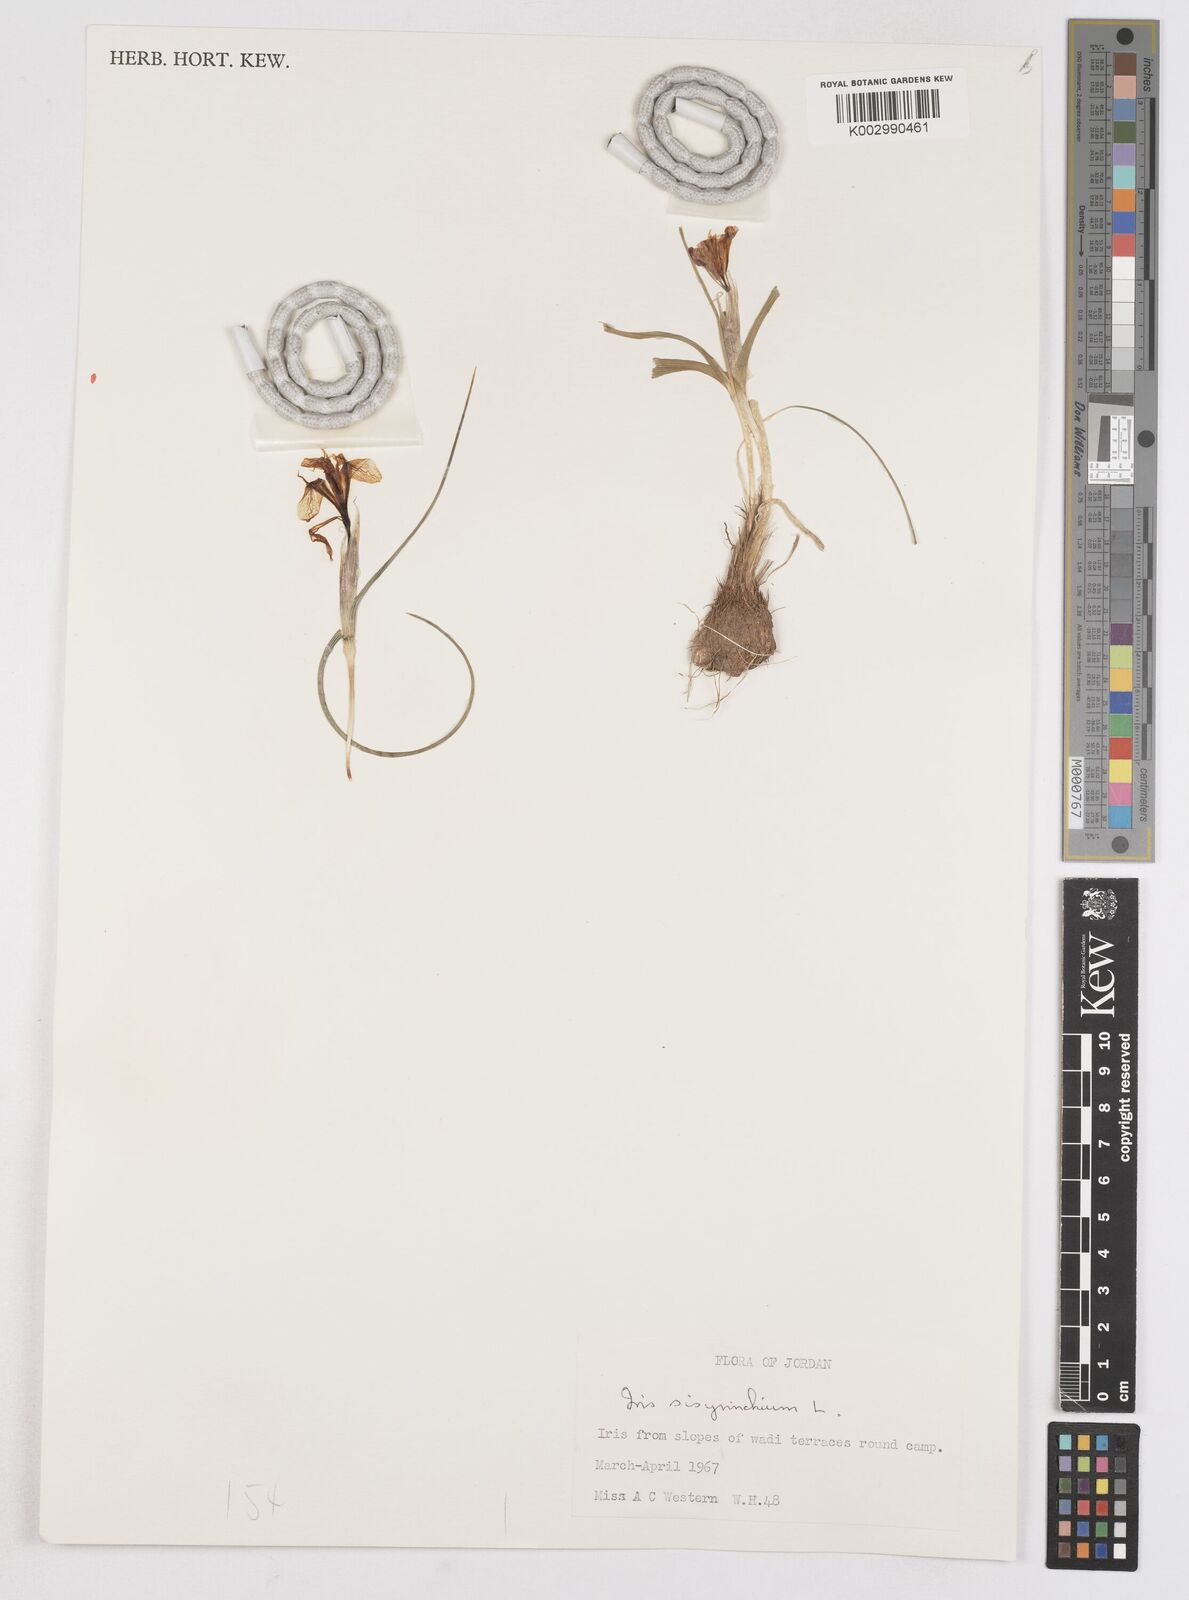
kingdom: Plantae
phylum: Tracheophyta
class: Liliopsida
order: Asparagales
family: Iridaceae
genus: Moraea
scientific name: Moraea sisyrinchium
